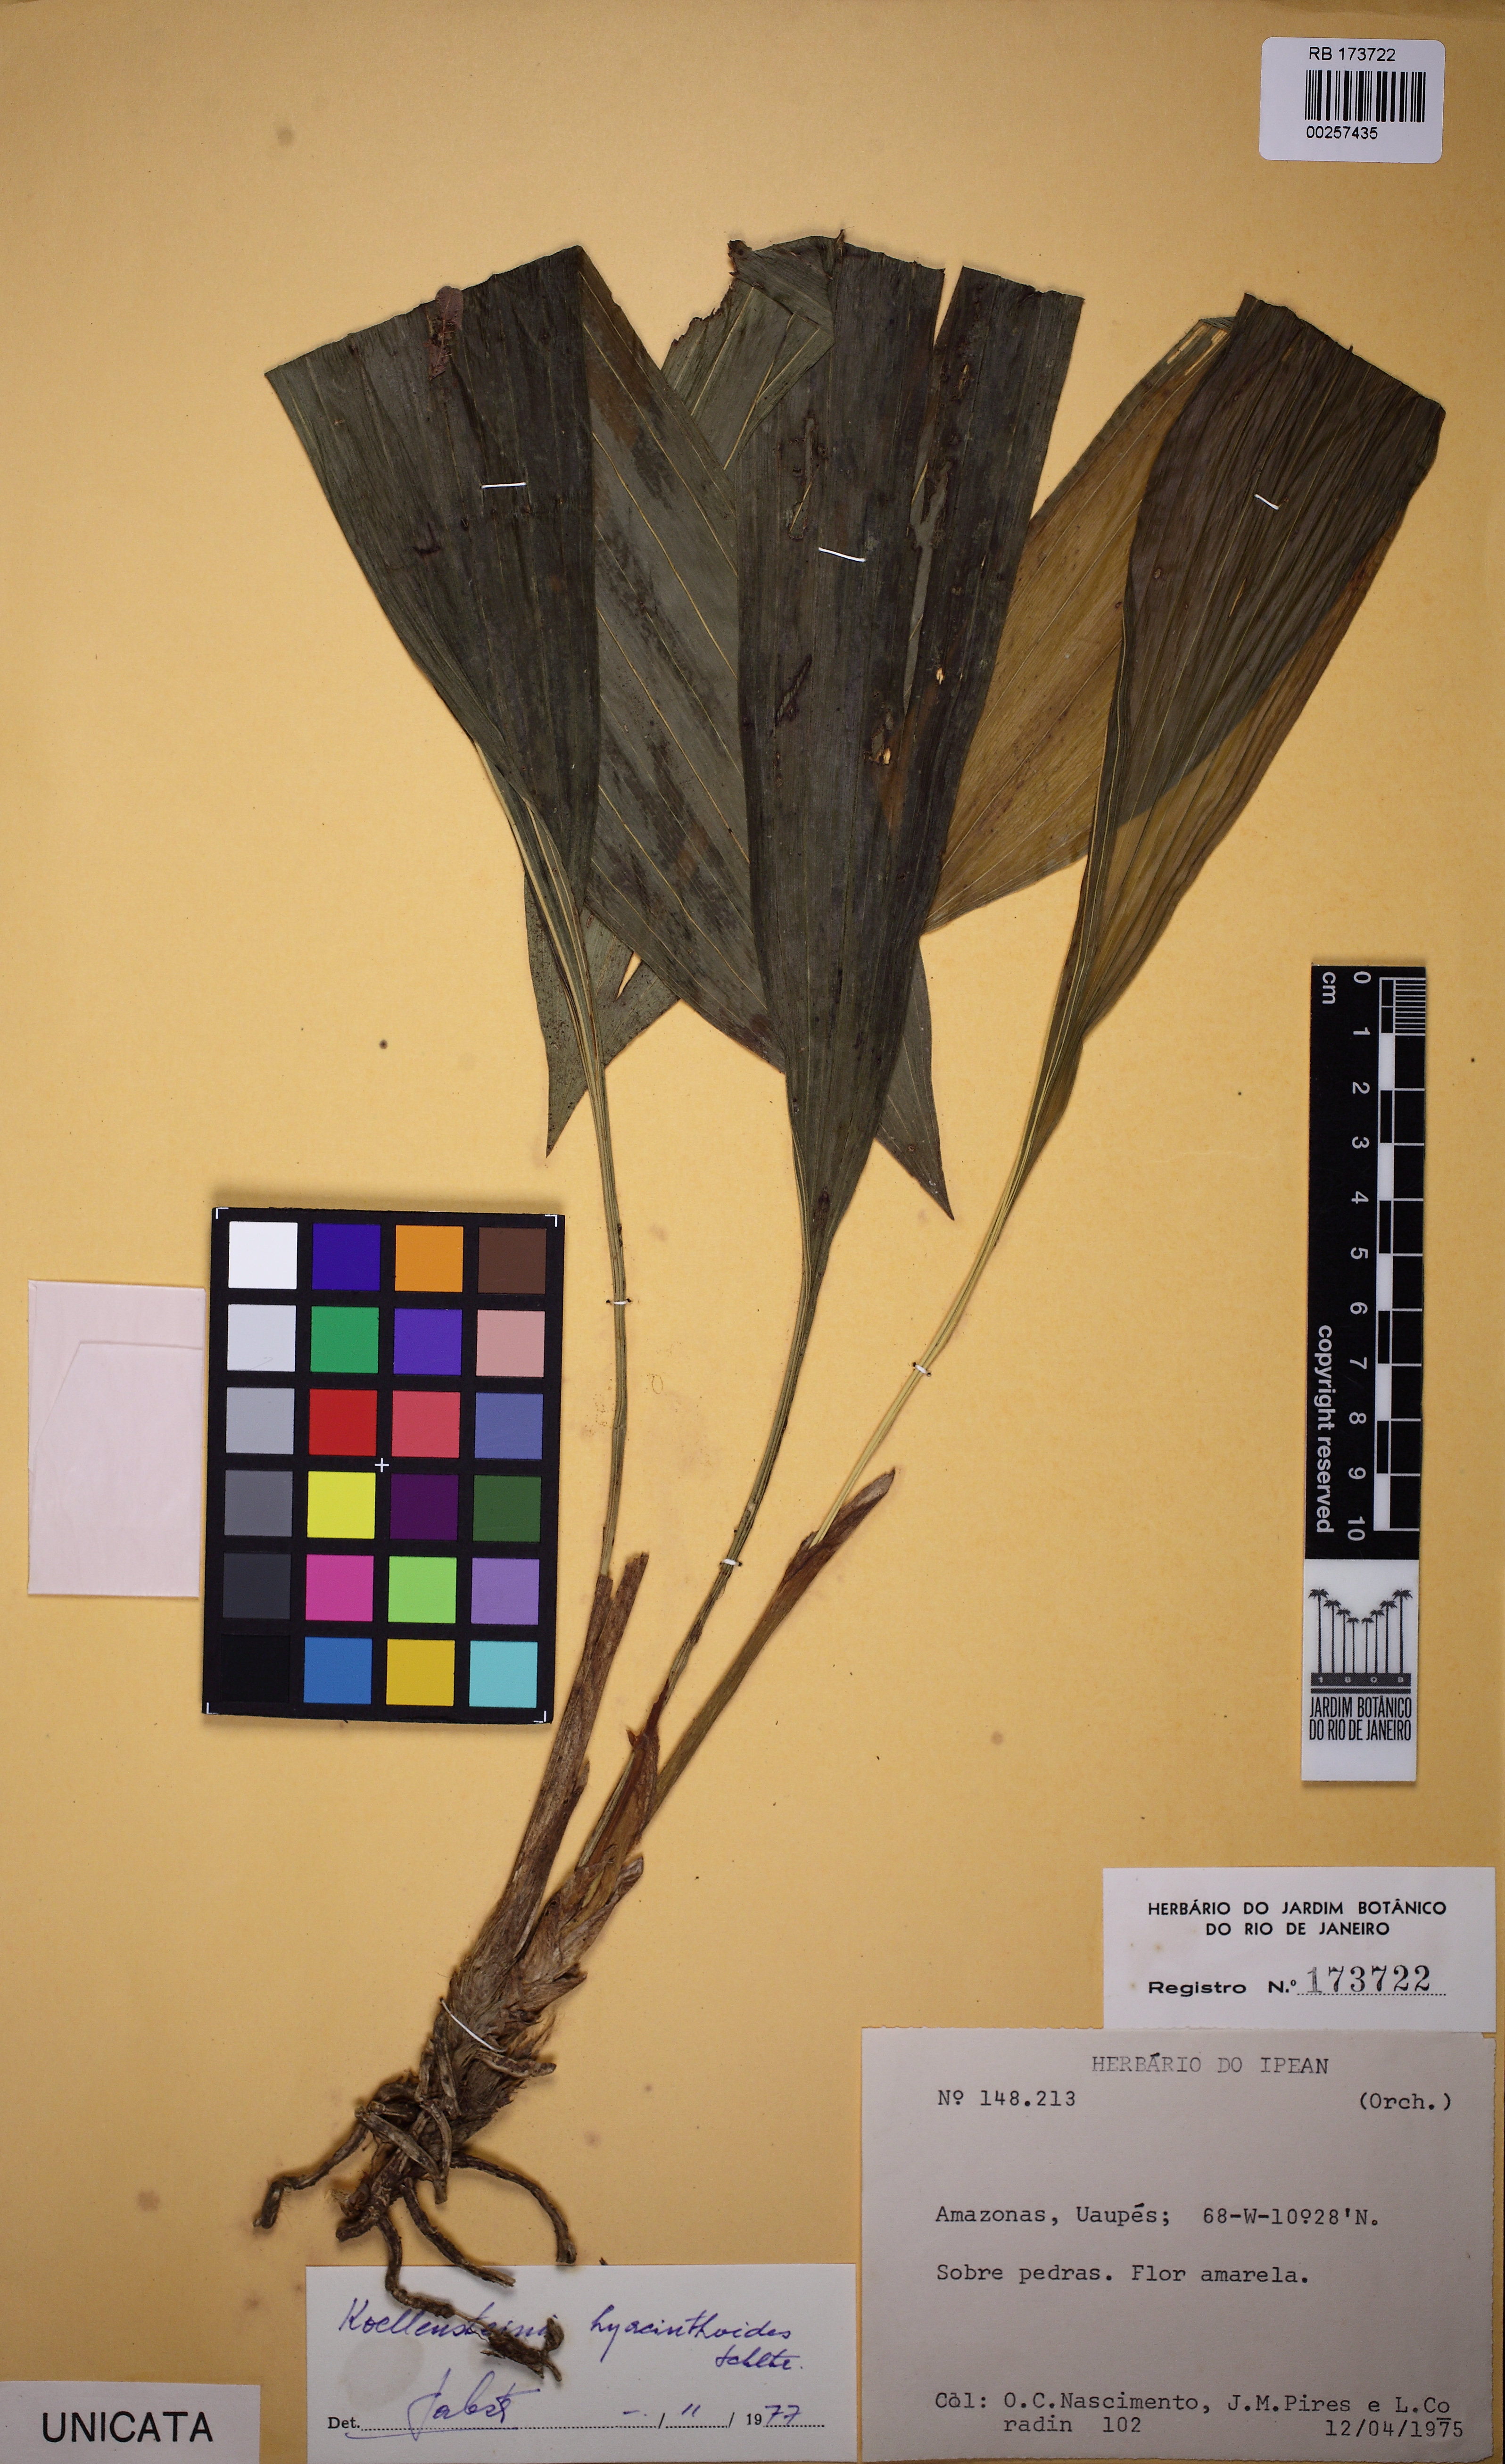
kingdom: Plantae
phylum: Tracheophyta
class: Liliopsida
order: Asparagales
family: Orchidaceae
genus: Koellensteinia
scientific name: Koellensteinia hyacinthoides
